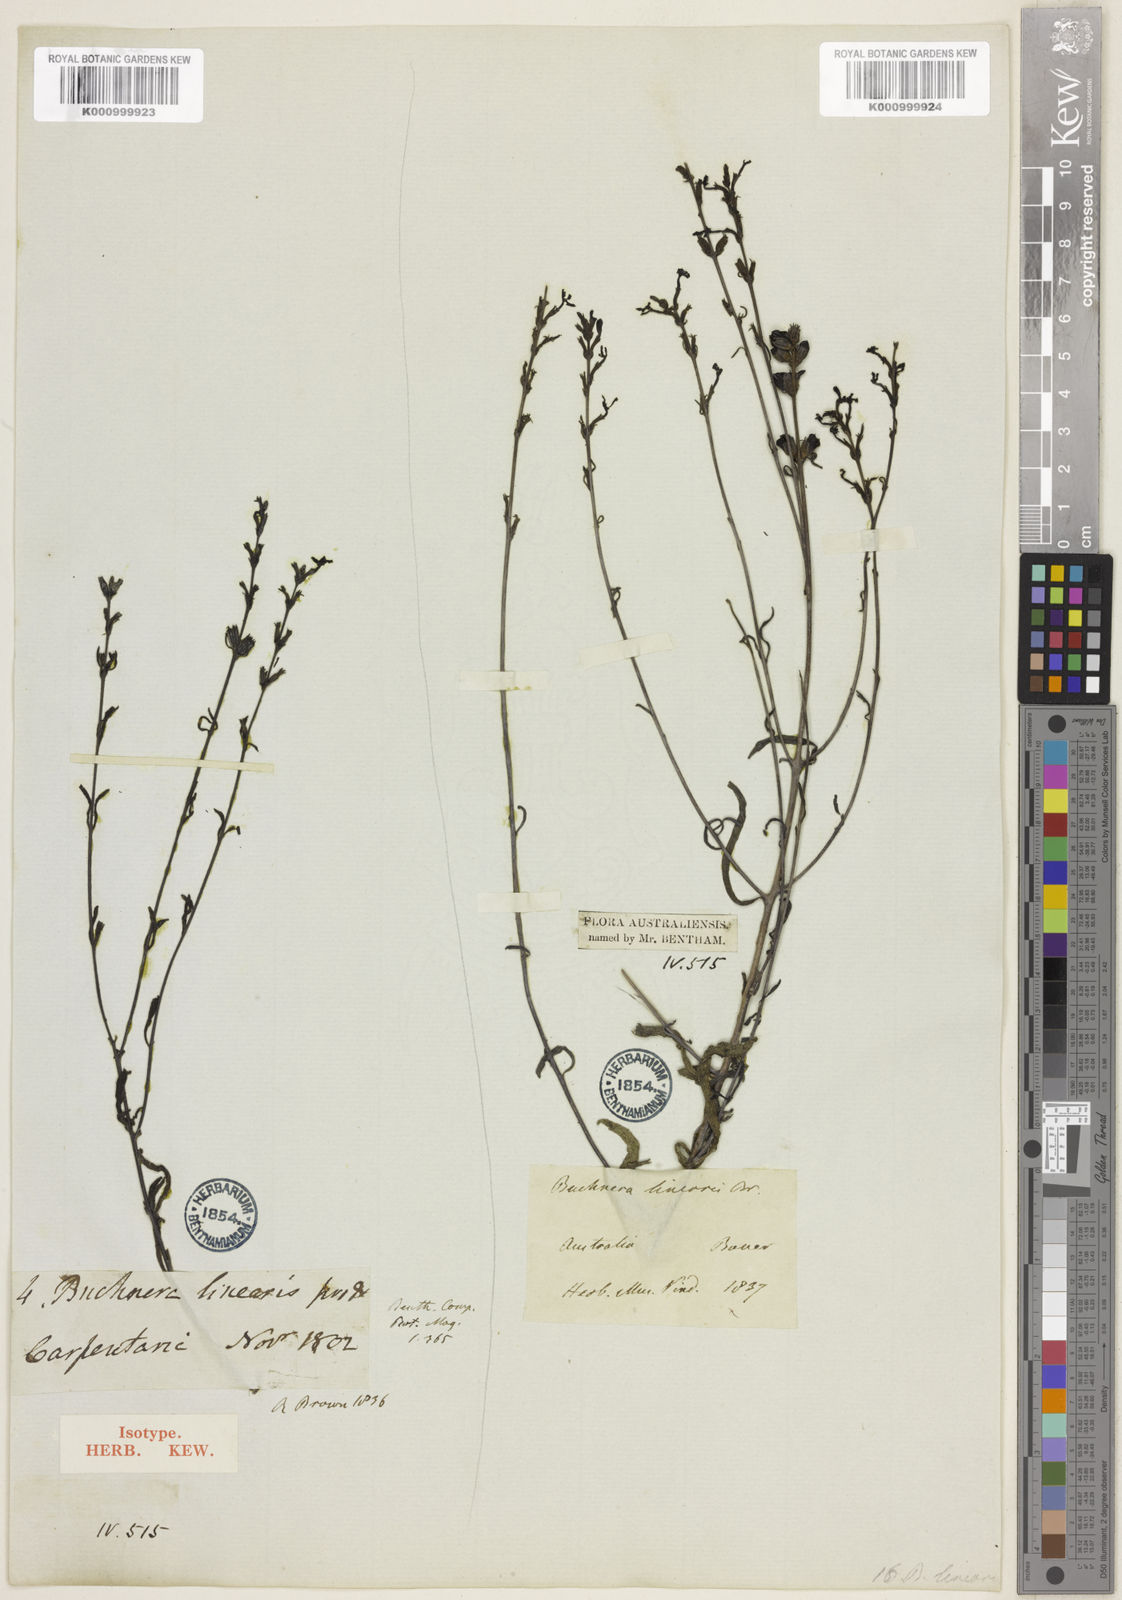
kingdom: Plantae
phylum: Tracheophyta
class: Magnoliopsida
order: Lamiales
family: Orobanchaceae
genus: Buchnera
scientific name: Buchnera linearis
